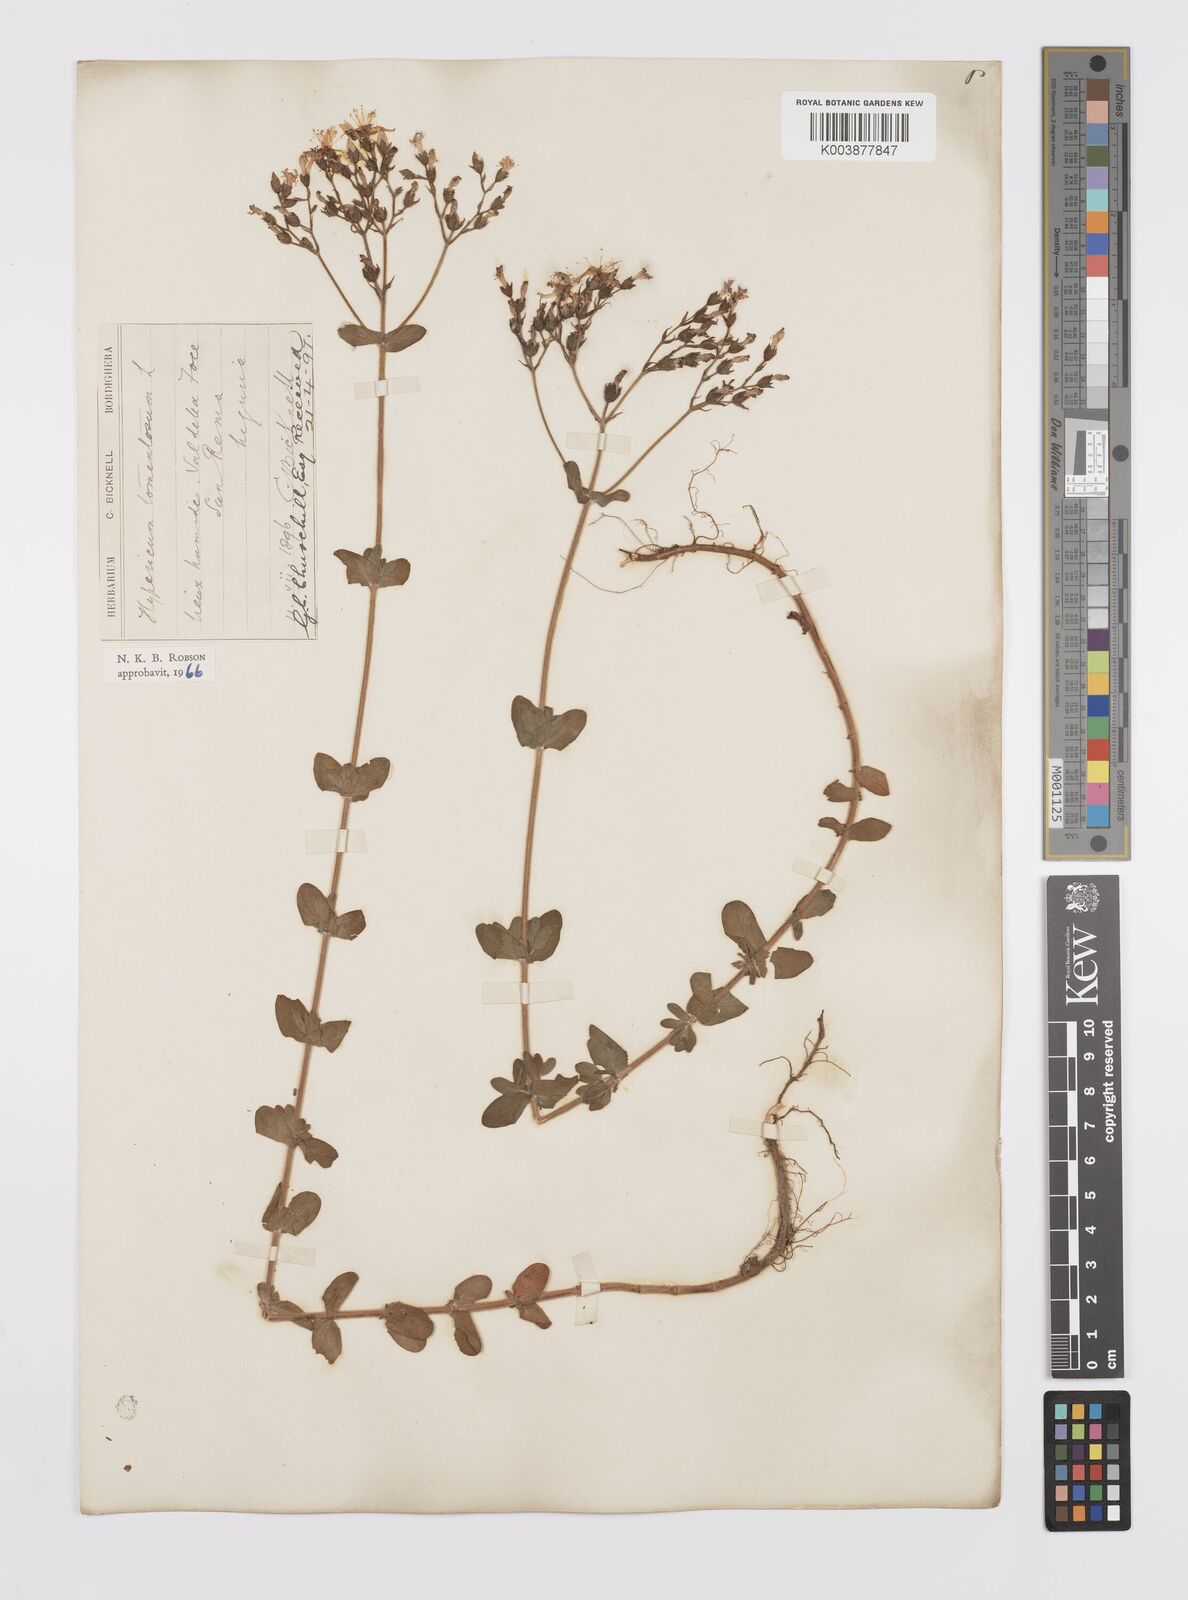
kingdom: Plantae
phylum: Tracheophyta
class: Magnoliopsida
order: Malpighiales
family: Hypericaceae
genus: Hypericum
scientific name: Hypericum tomentosum
